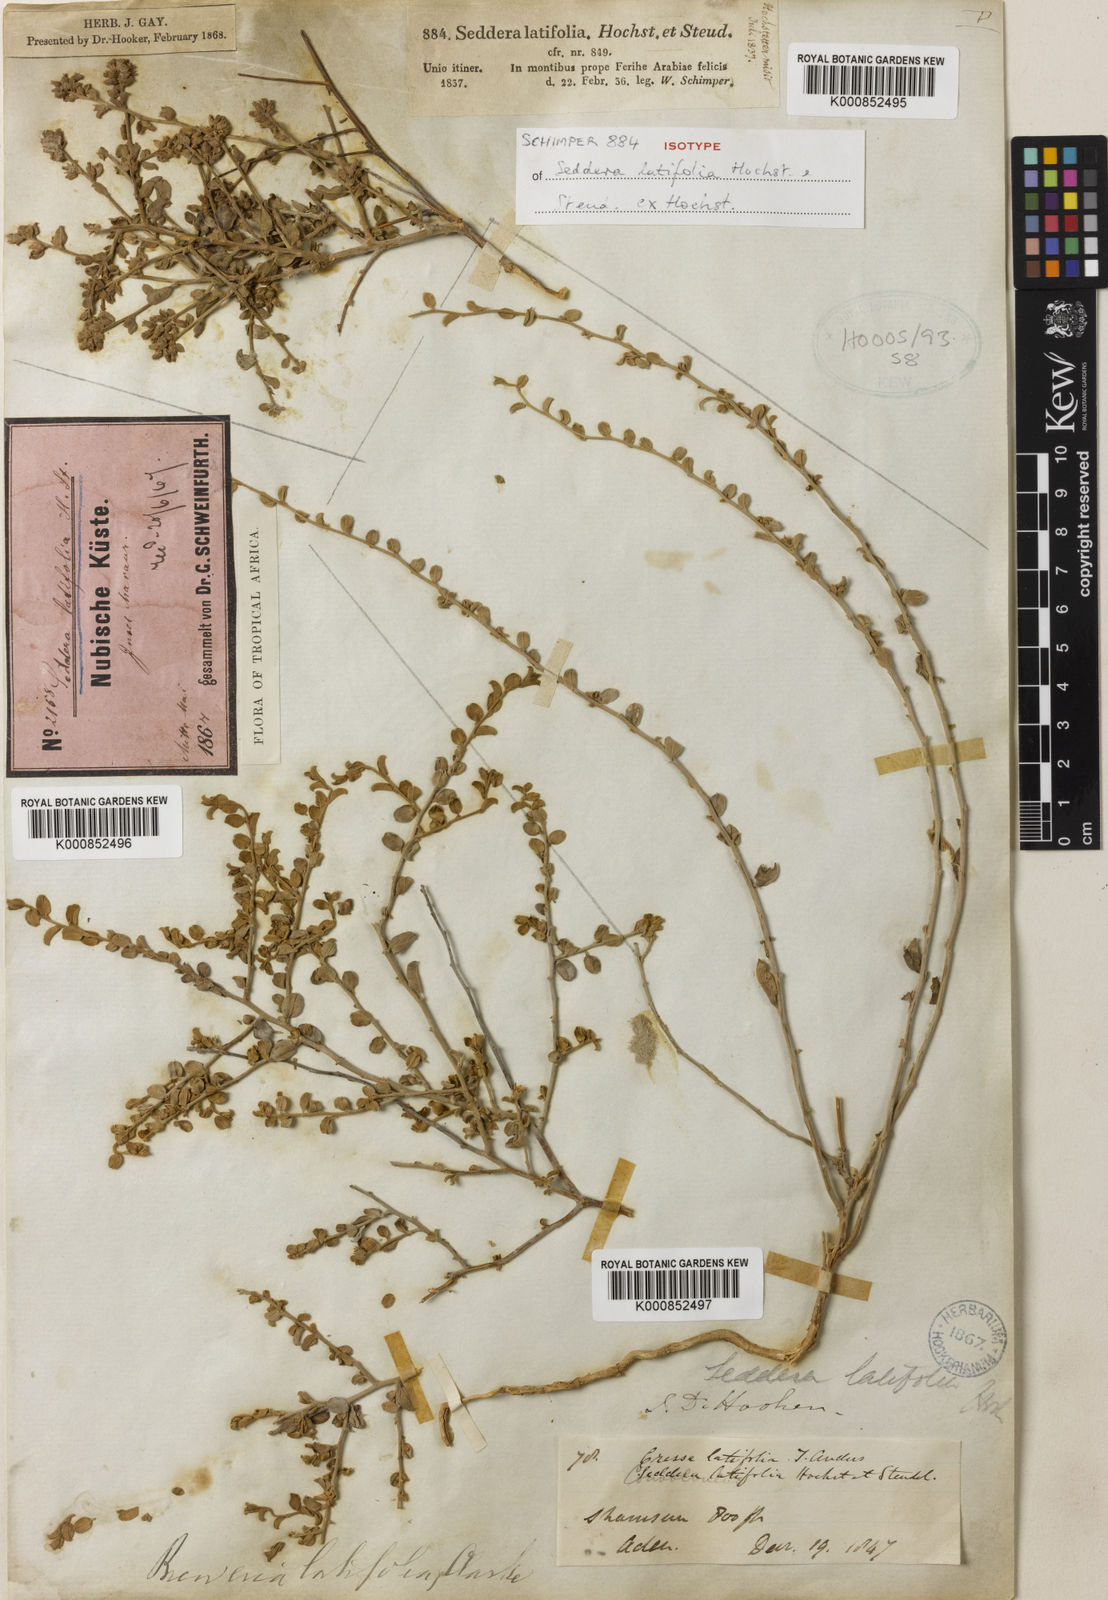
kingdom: Plantae
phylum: Tracheophyta
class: Magnoliopsida
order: Solanales
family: Convolvulaceae
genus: Seddera
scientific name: Seddera latifolia
